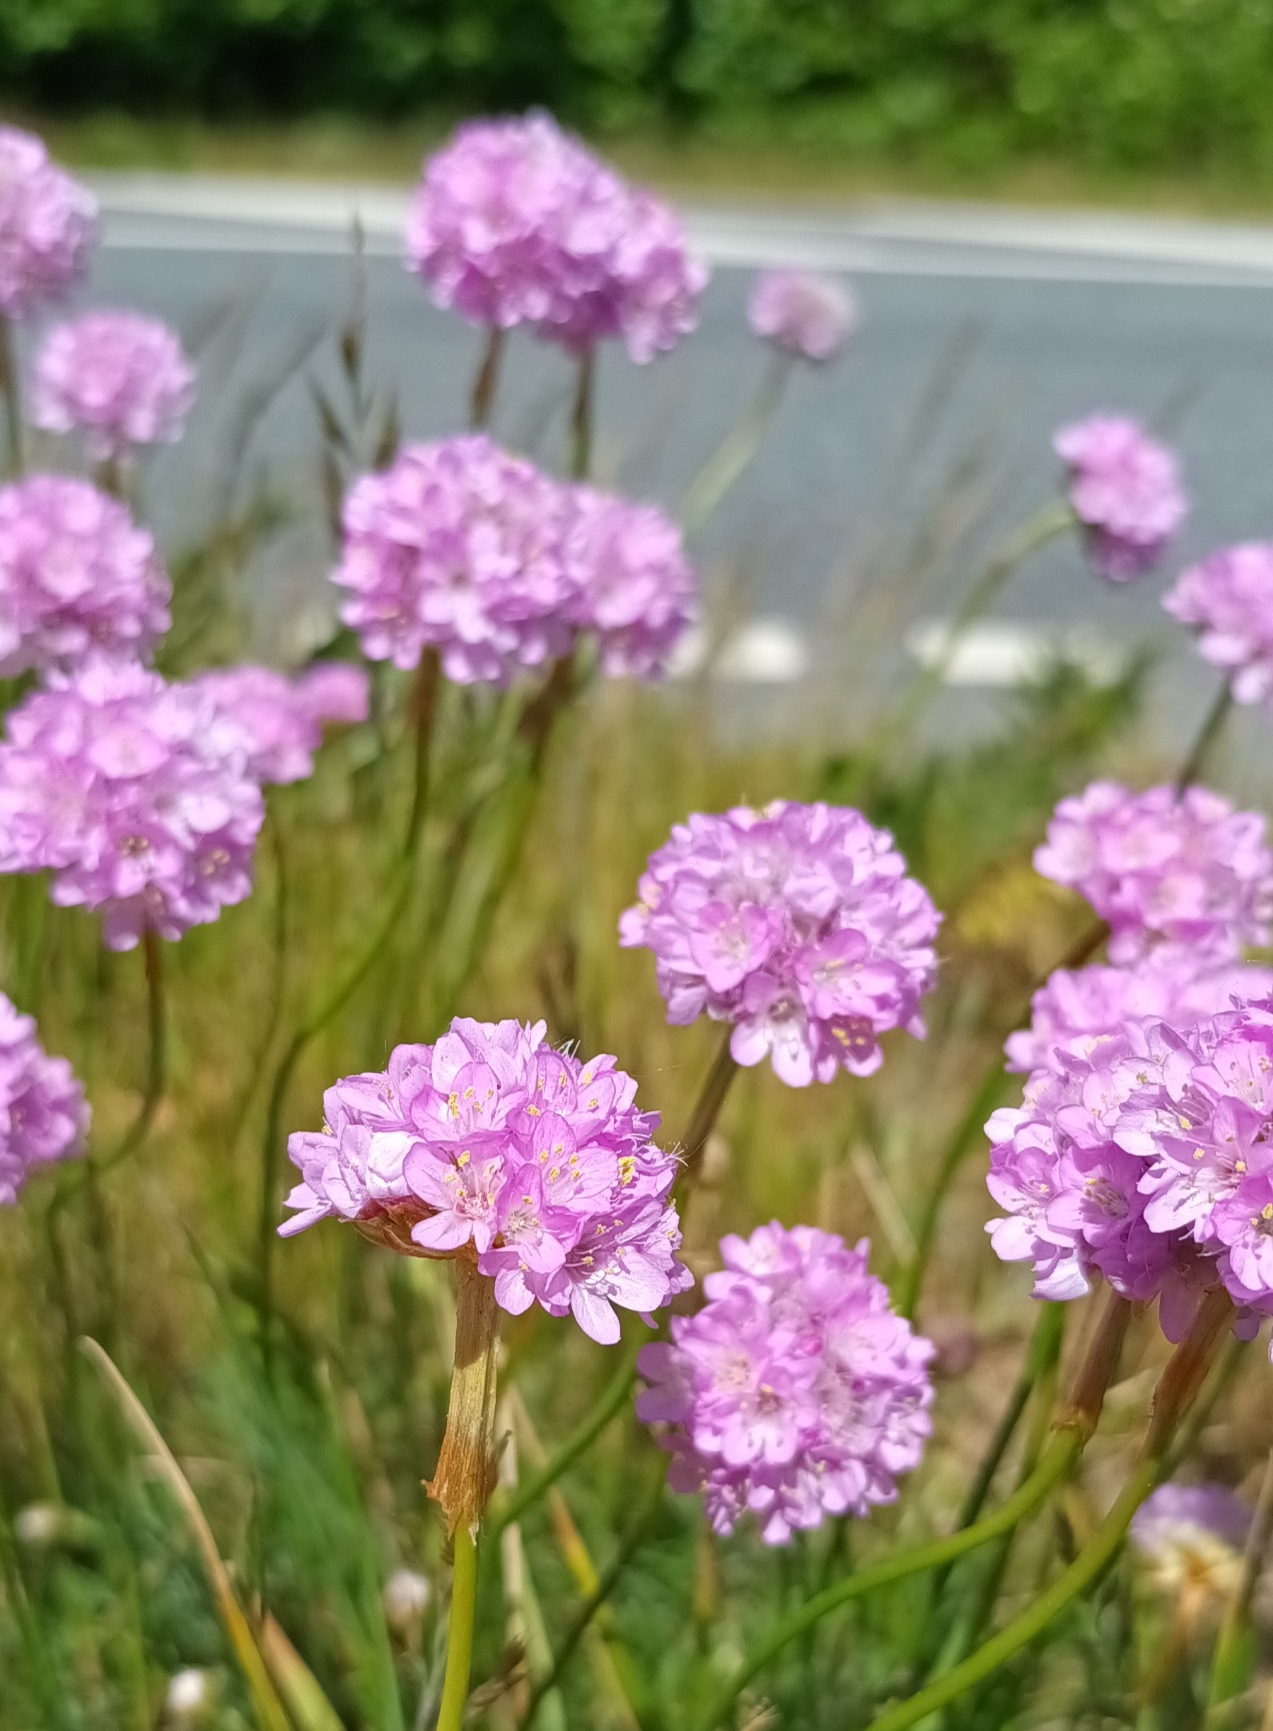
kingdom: Plantae
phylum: Tracheophyta
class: Magnoliopsida
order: Caryophyllales
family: Plumbaginaceae
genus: Armeria
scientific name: Armeria maritima
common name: Engelskgræs
